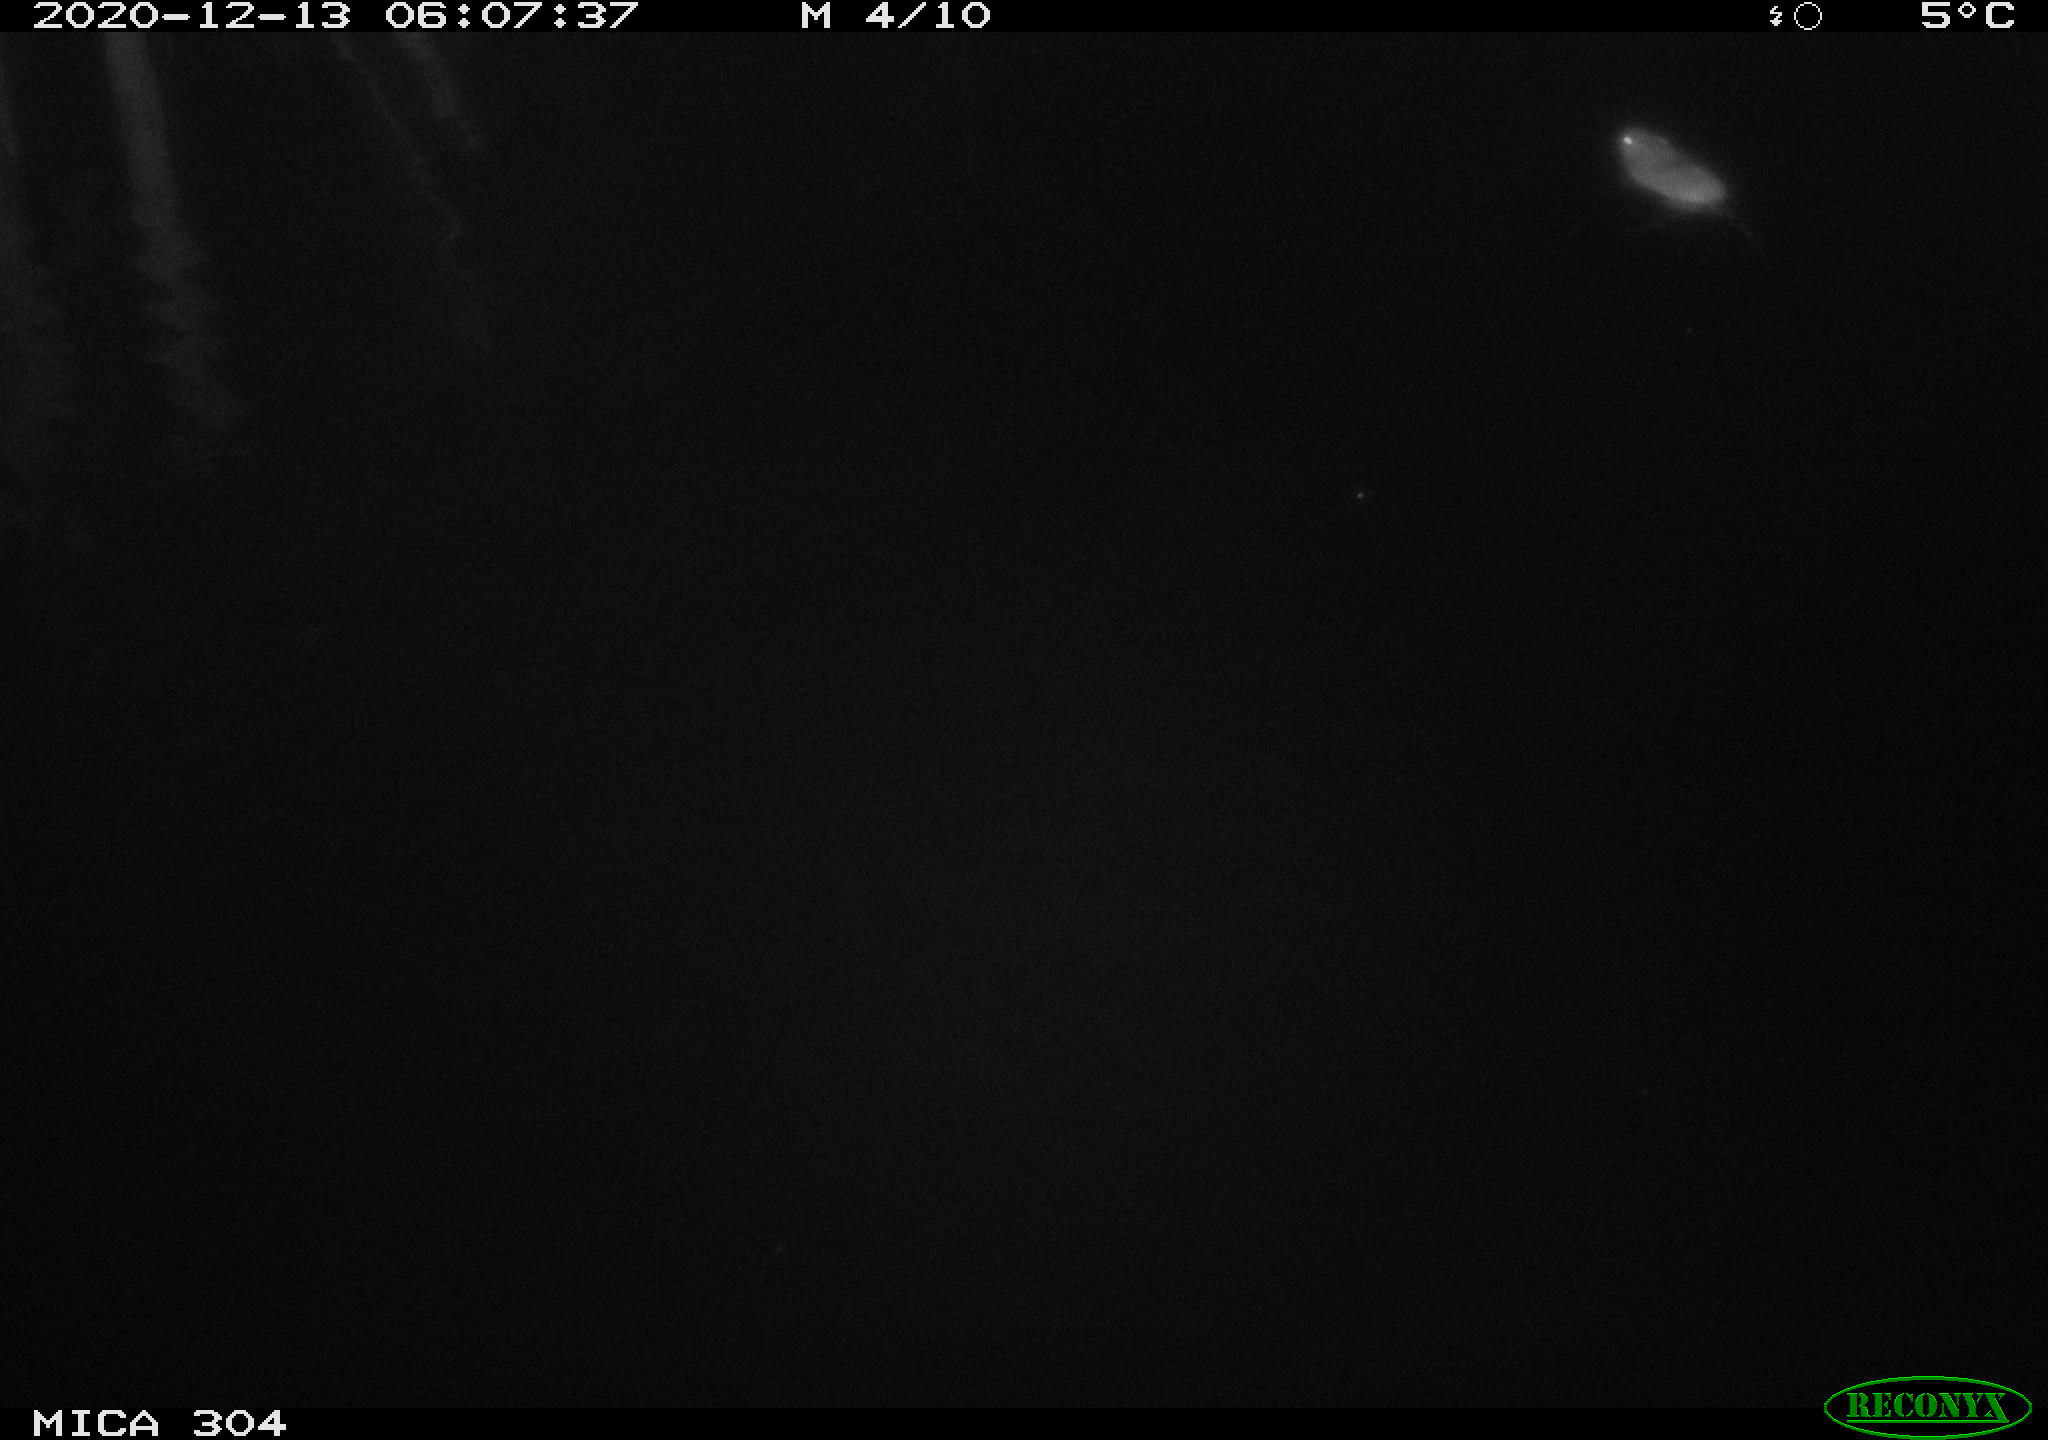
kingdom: Animalia
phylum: Chordata
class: Mammalia
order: Rodentia
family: Muridae
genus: Rattus
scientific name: Rattus norvegicus
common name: Brown rat
